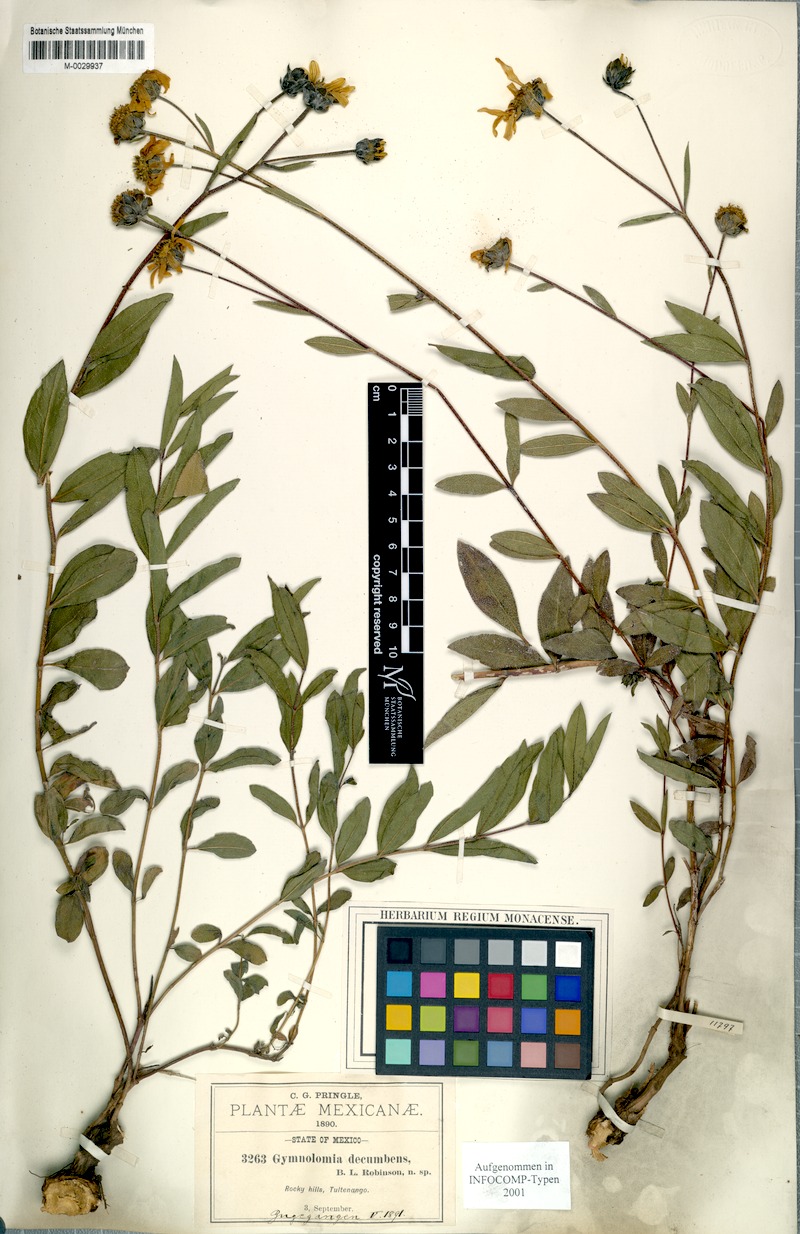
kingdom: Plantae
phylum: Tracheophyta
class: Magnoliopsida
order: Asterales
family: Asteraceae
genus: Aldama
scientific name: Aldama flava
